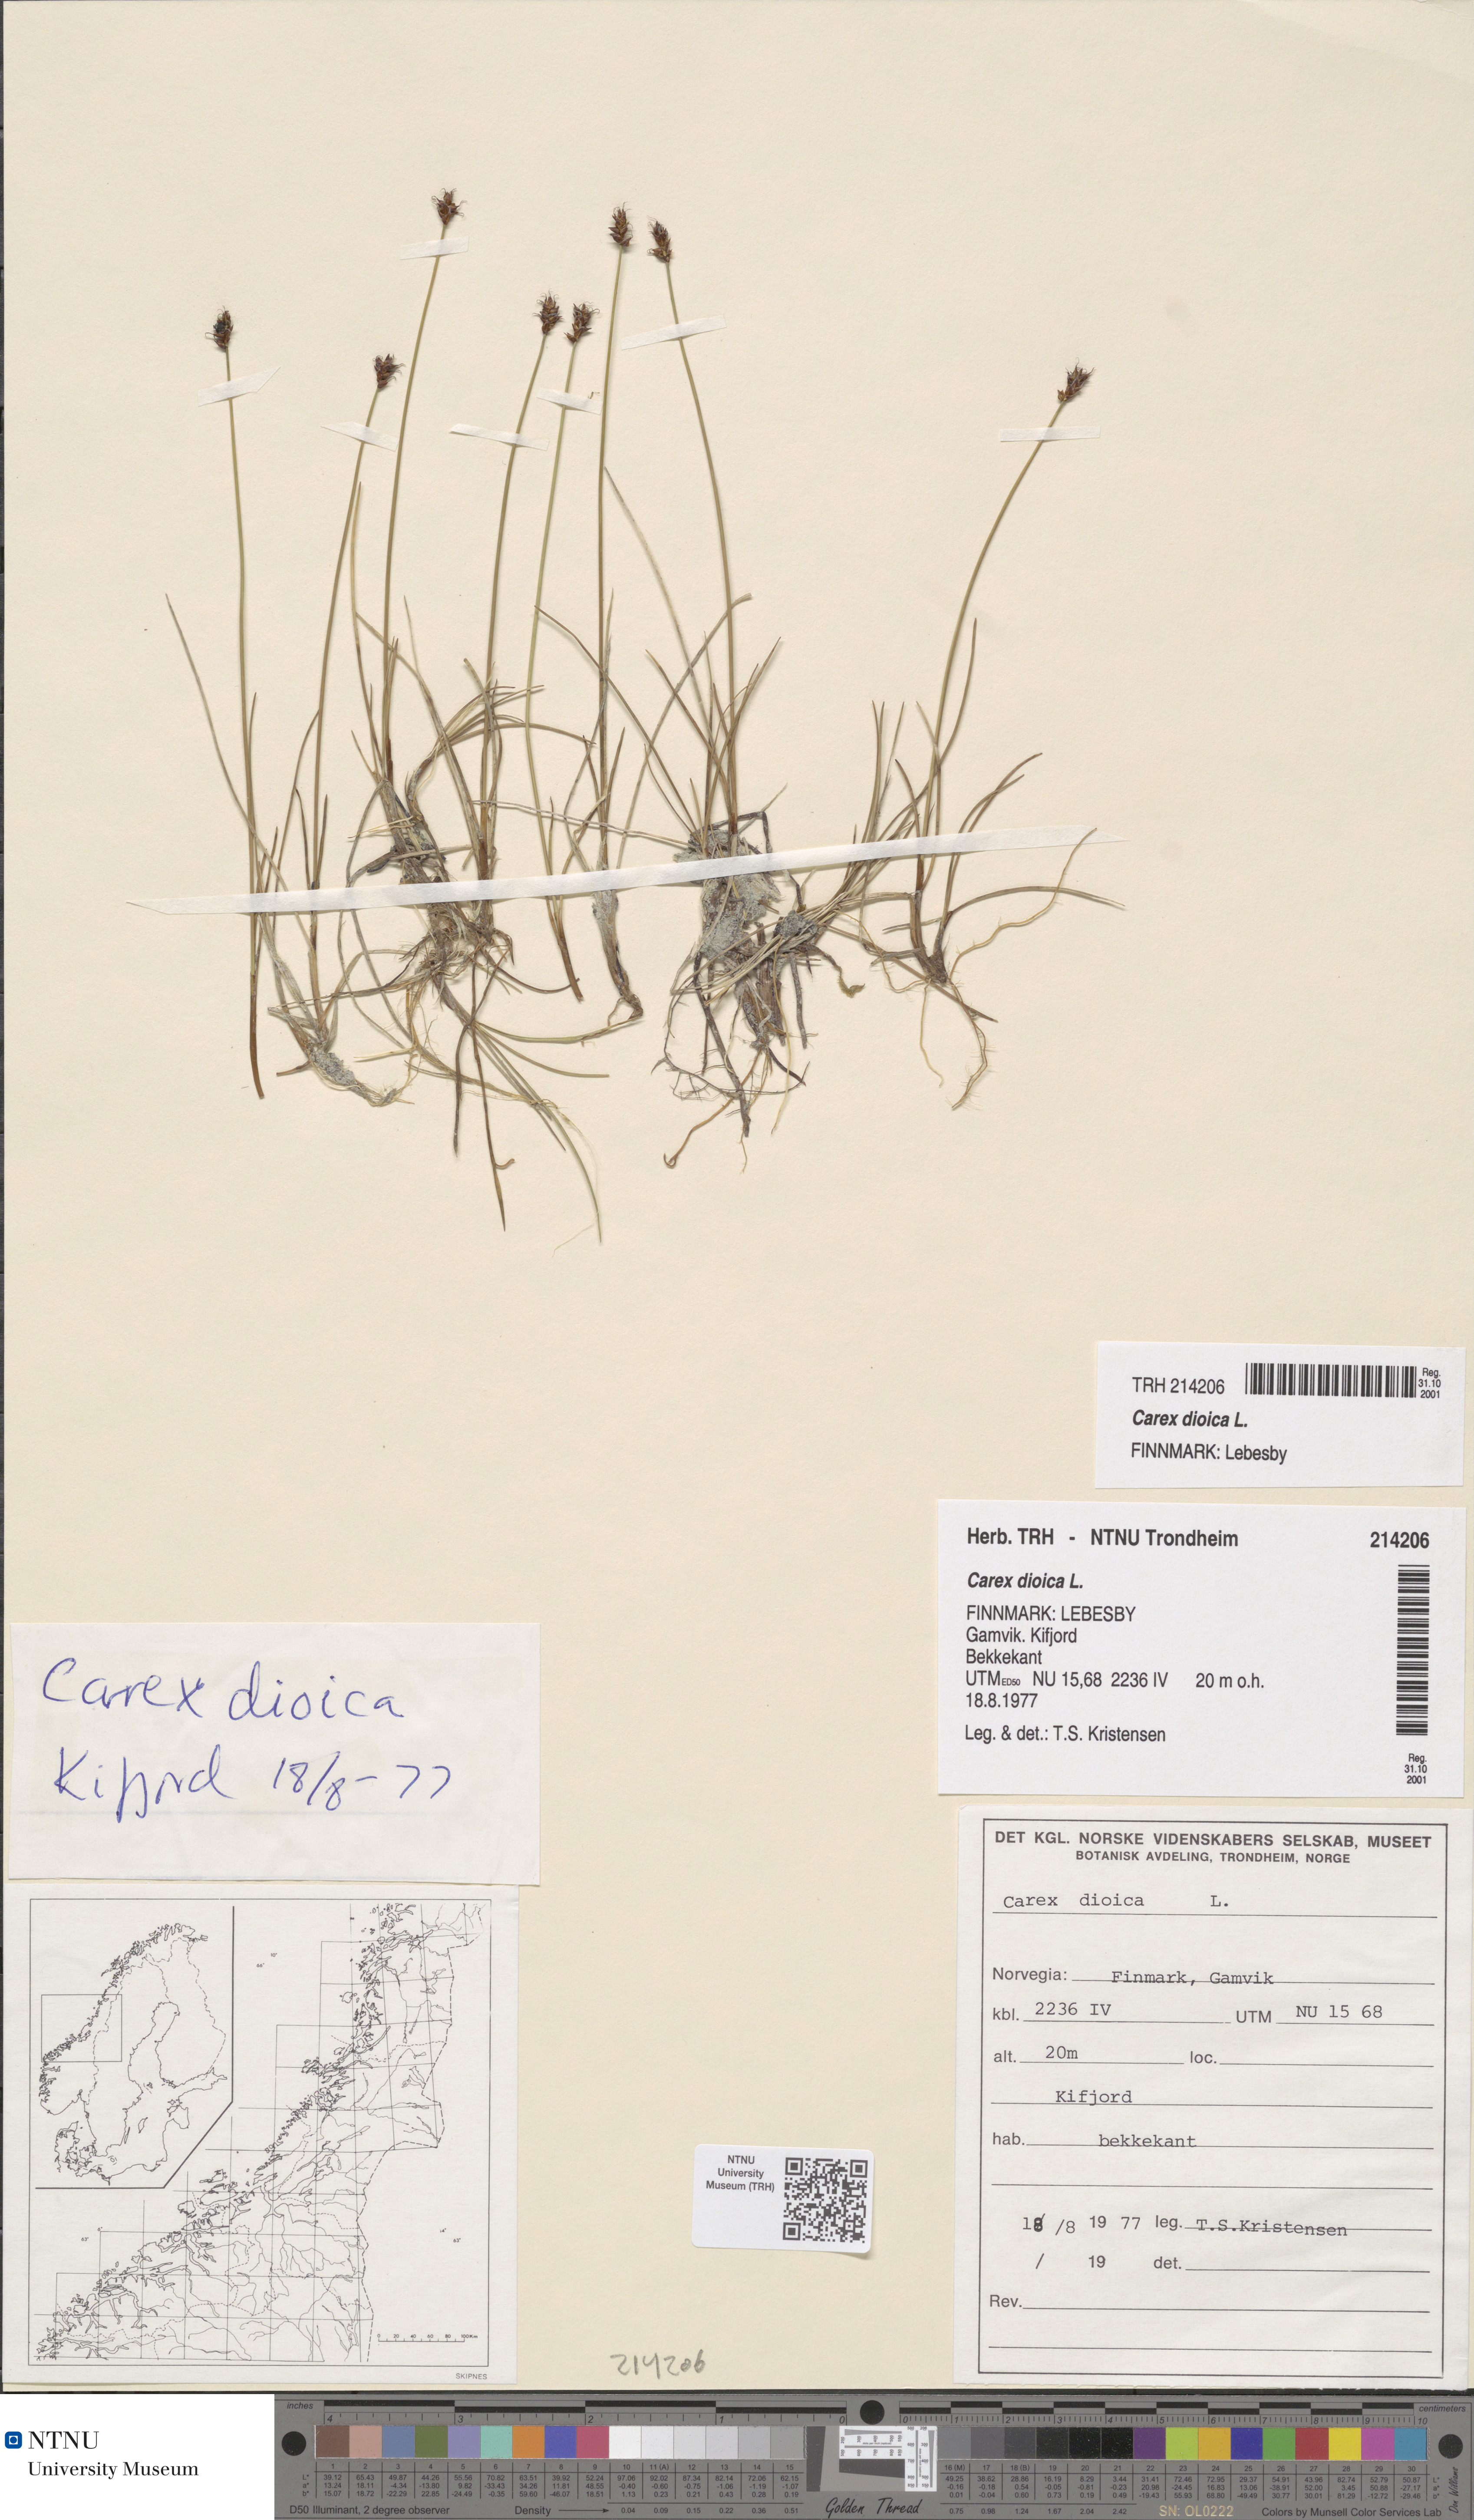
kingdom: Plantae
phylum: Tracheophyta
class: Liliopsida
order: Poales
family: Cyperaceae
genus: Carex
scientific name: Carex dioica
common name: Dioecious sedge
